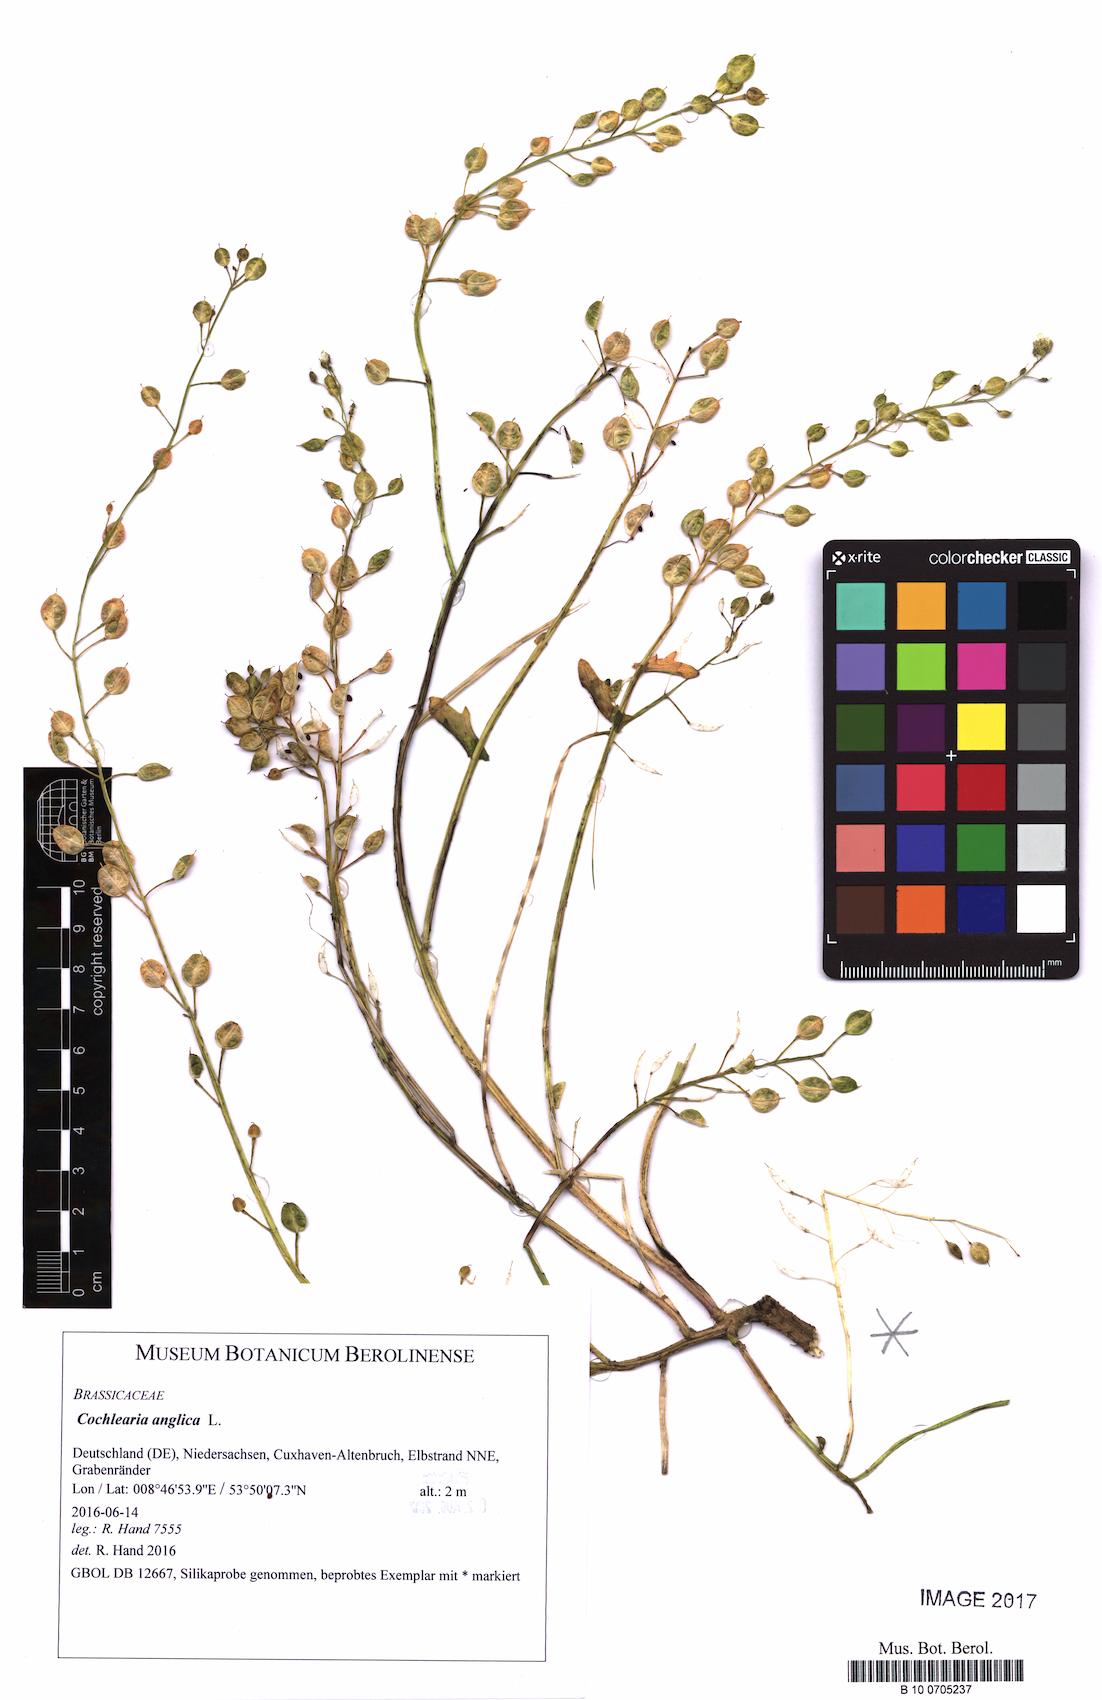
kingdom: Plantae
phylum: Tracheophyta
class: Magnoliopsida
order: Brassicales
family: Brassicaceae
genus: Cochlearia
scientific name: Cochlearia anglica
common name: English scurvygrass
